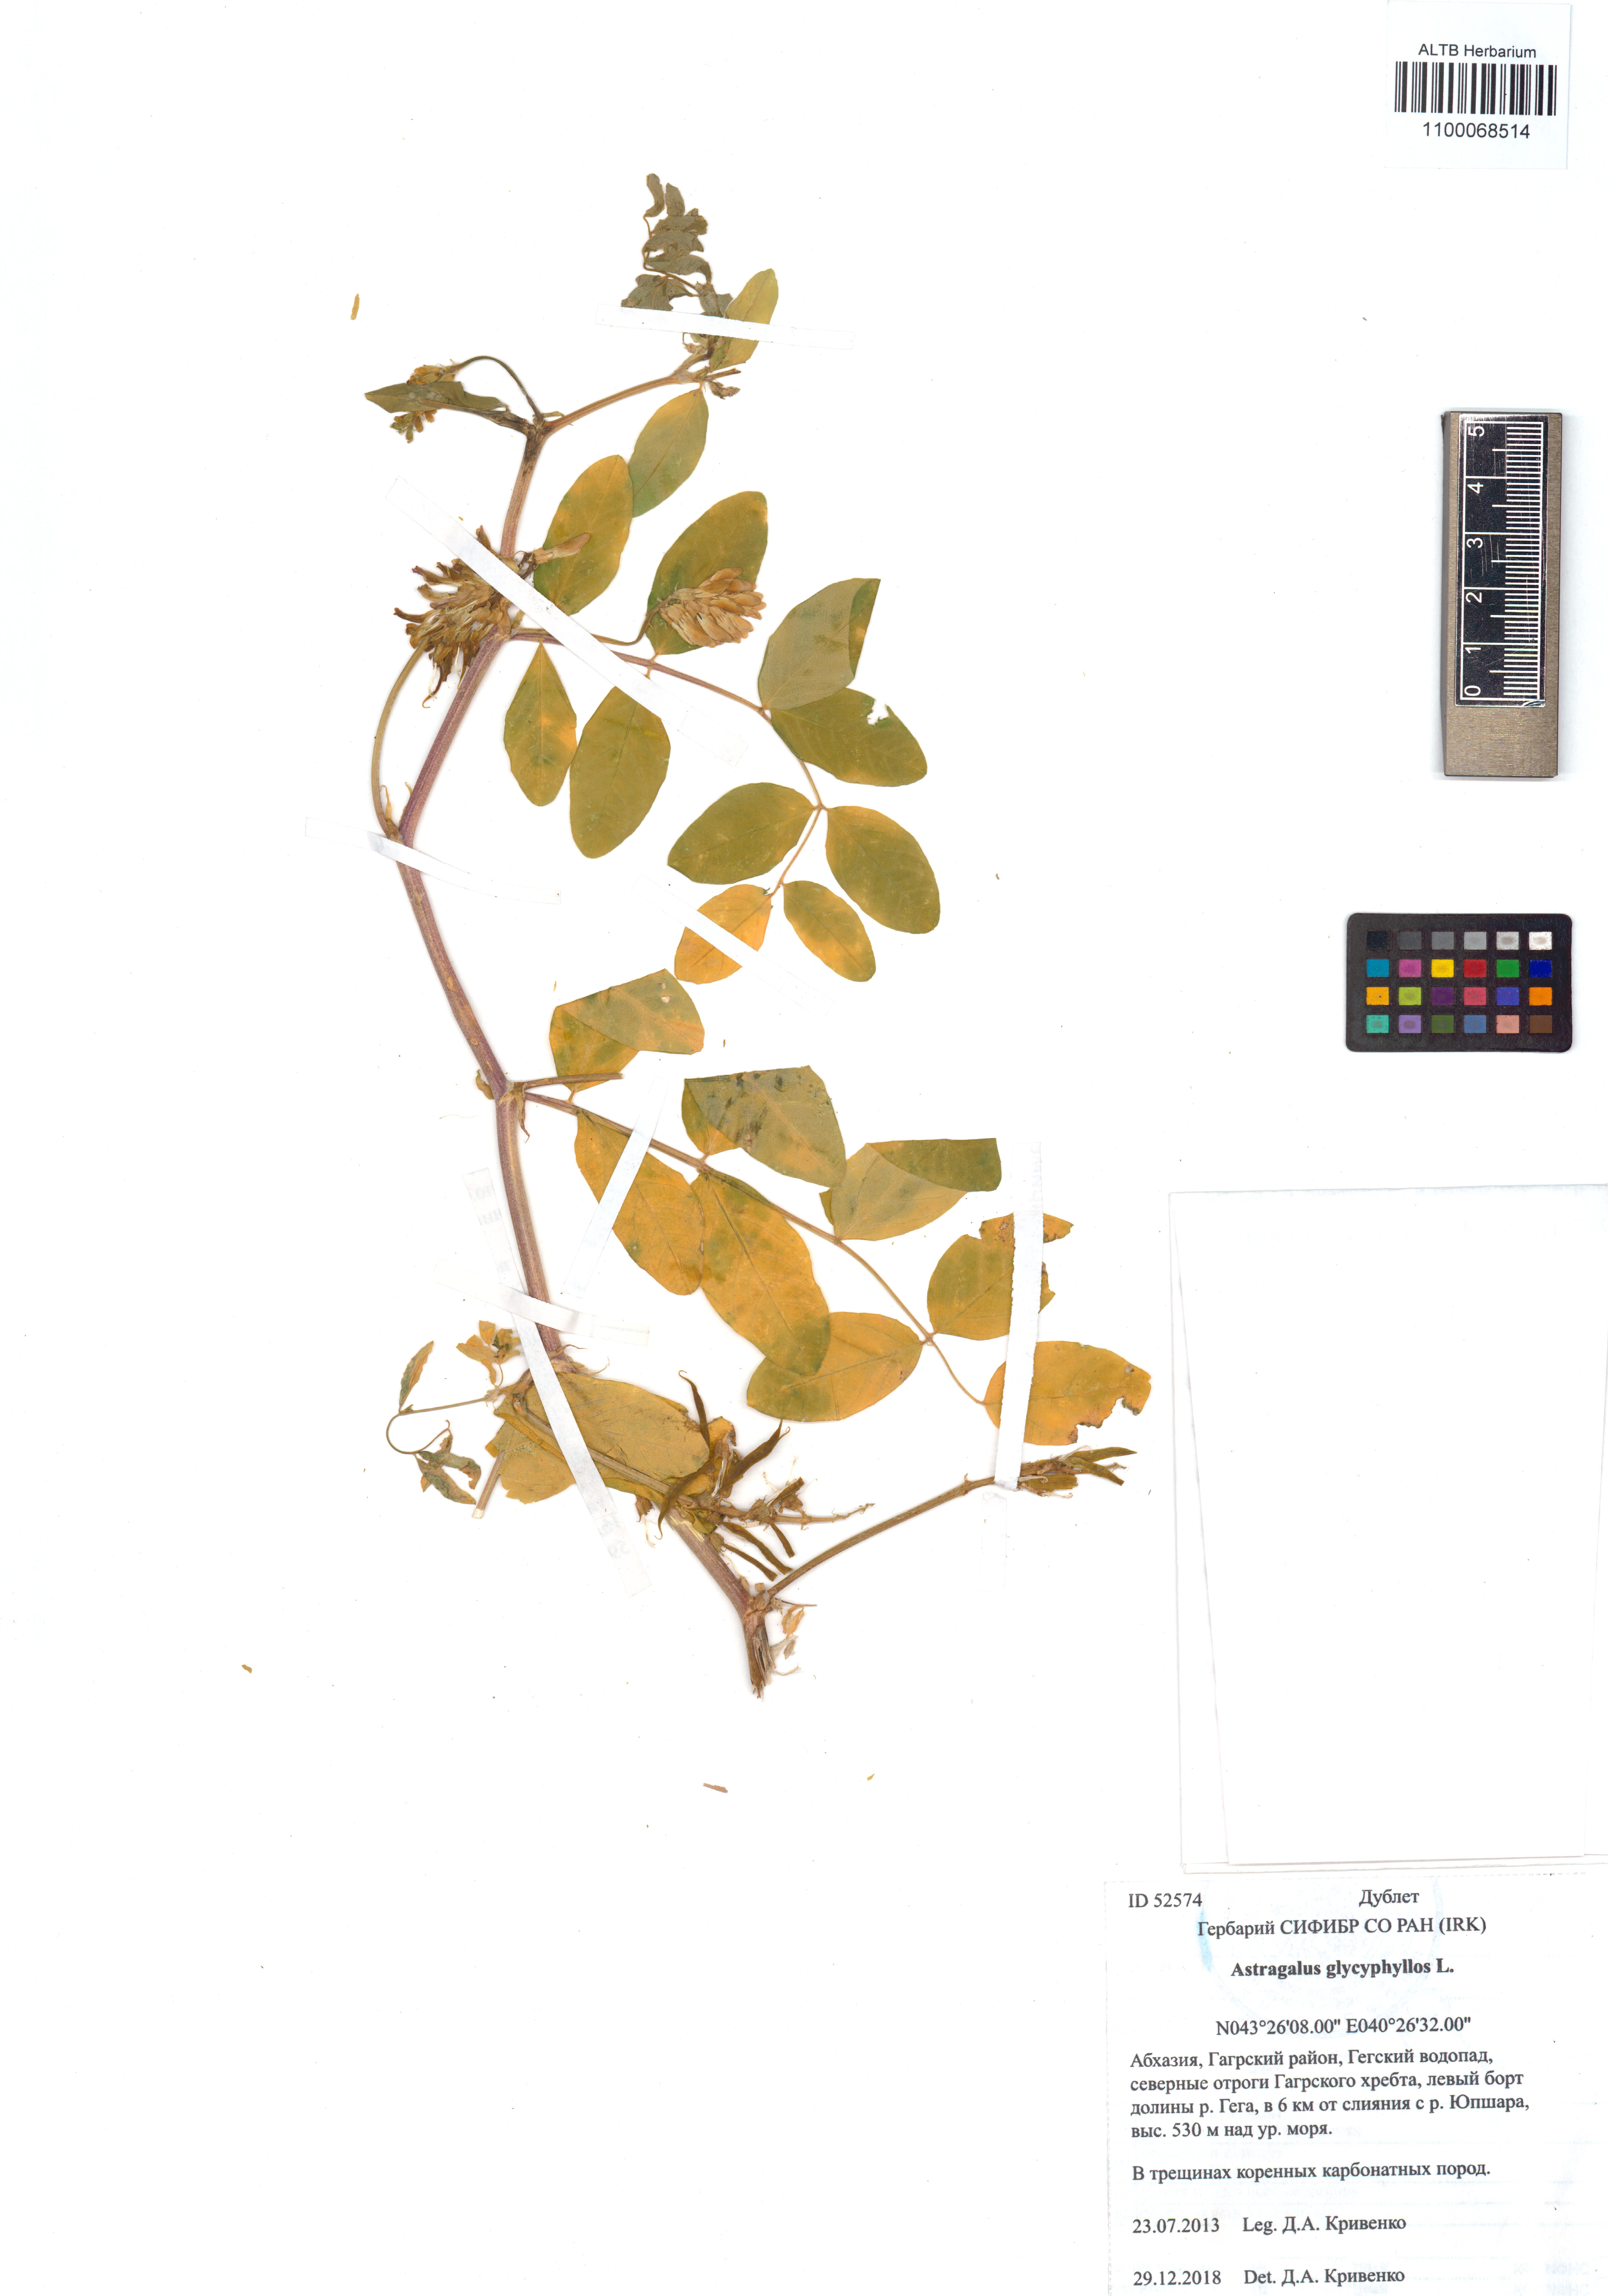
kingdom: Plantae
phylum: Tracheophyta
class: Magnoliopsida
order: Fabales
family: Fabaceae
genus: Astragalus
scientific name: Astragalus glycyphyllos
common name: Wild liquorice
